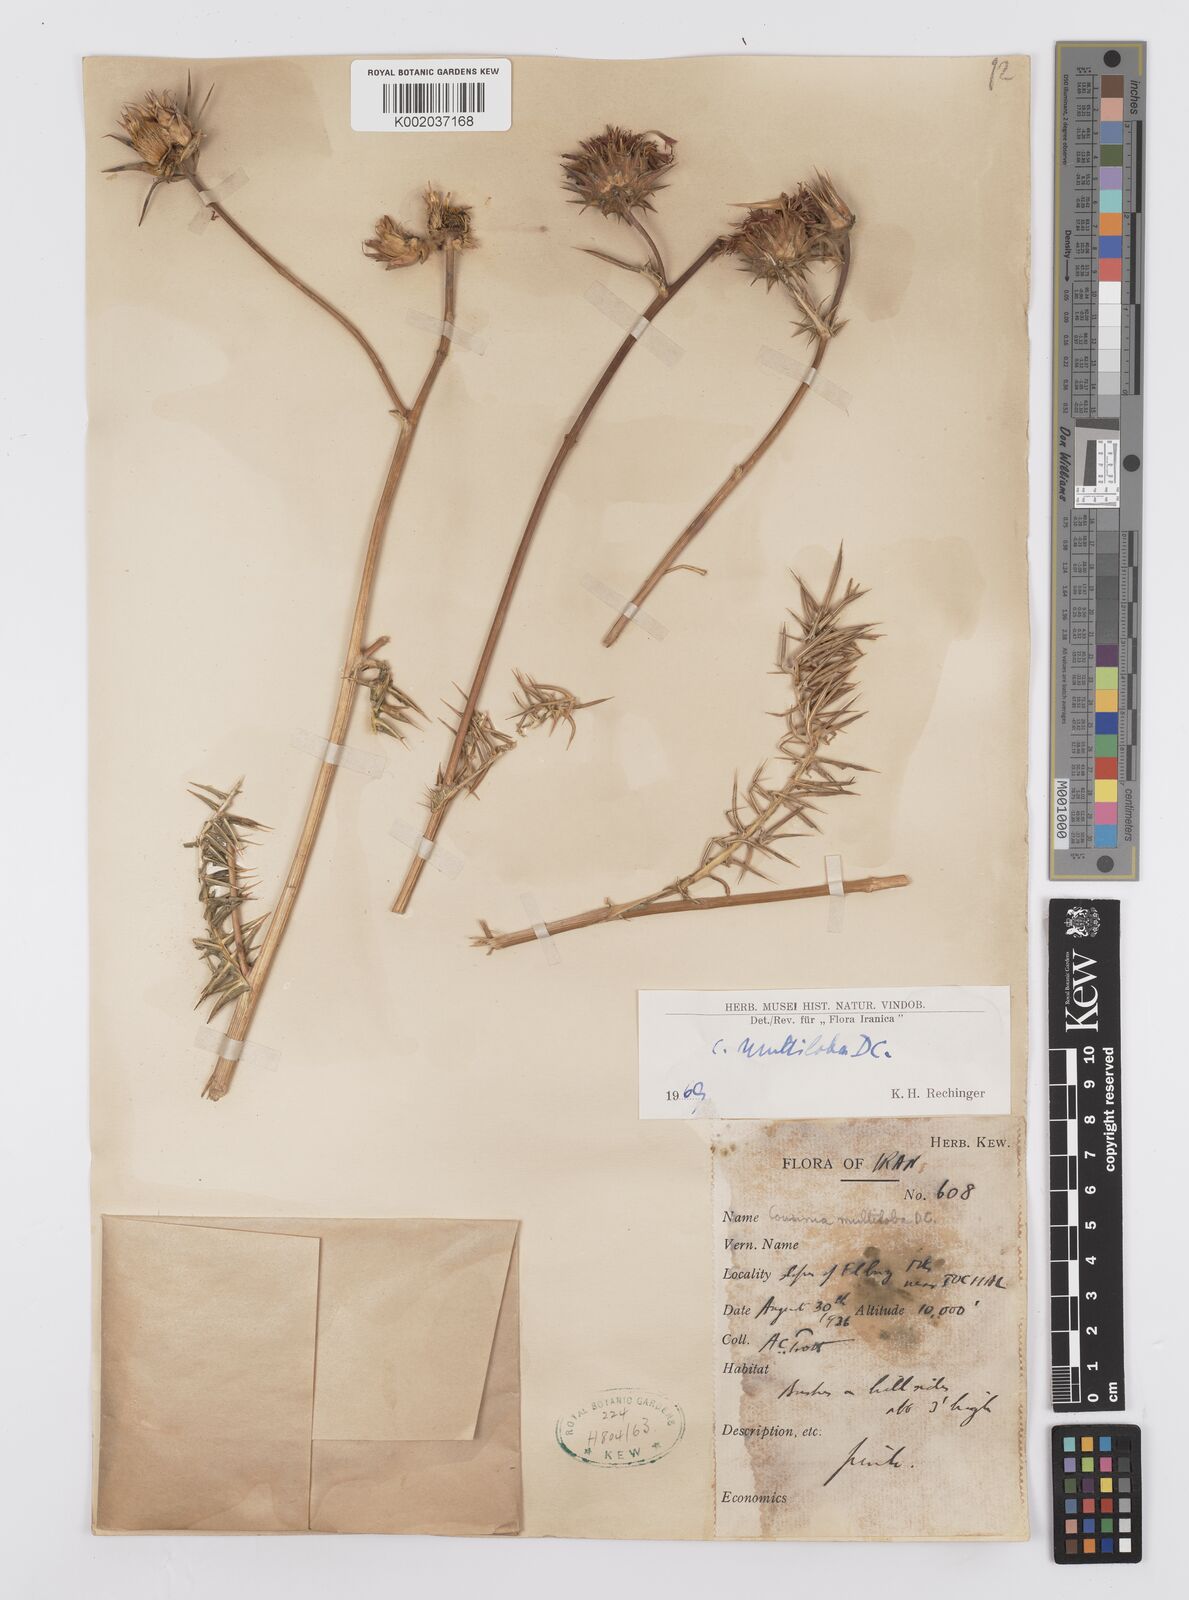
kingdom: Plantae
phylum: Tracheophyta
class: Magnoliopsida
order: Asterales
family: Asteraceae
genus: Cousinia
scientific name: Cousinia multiloba
